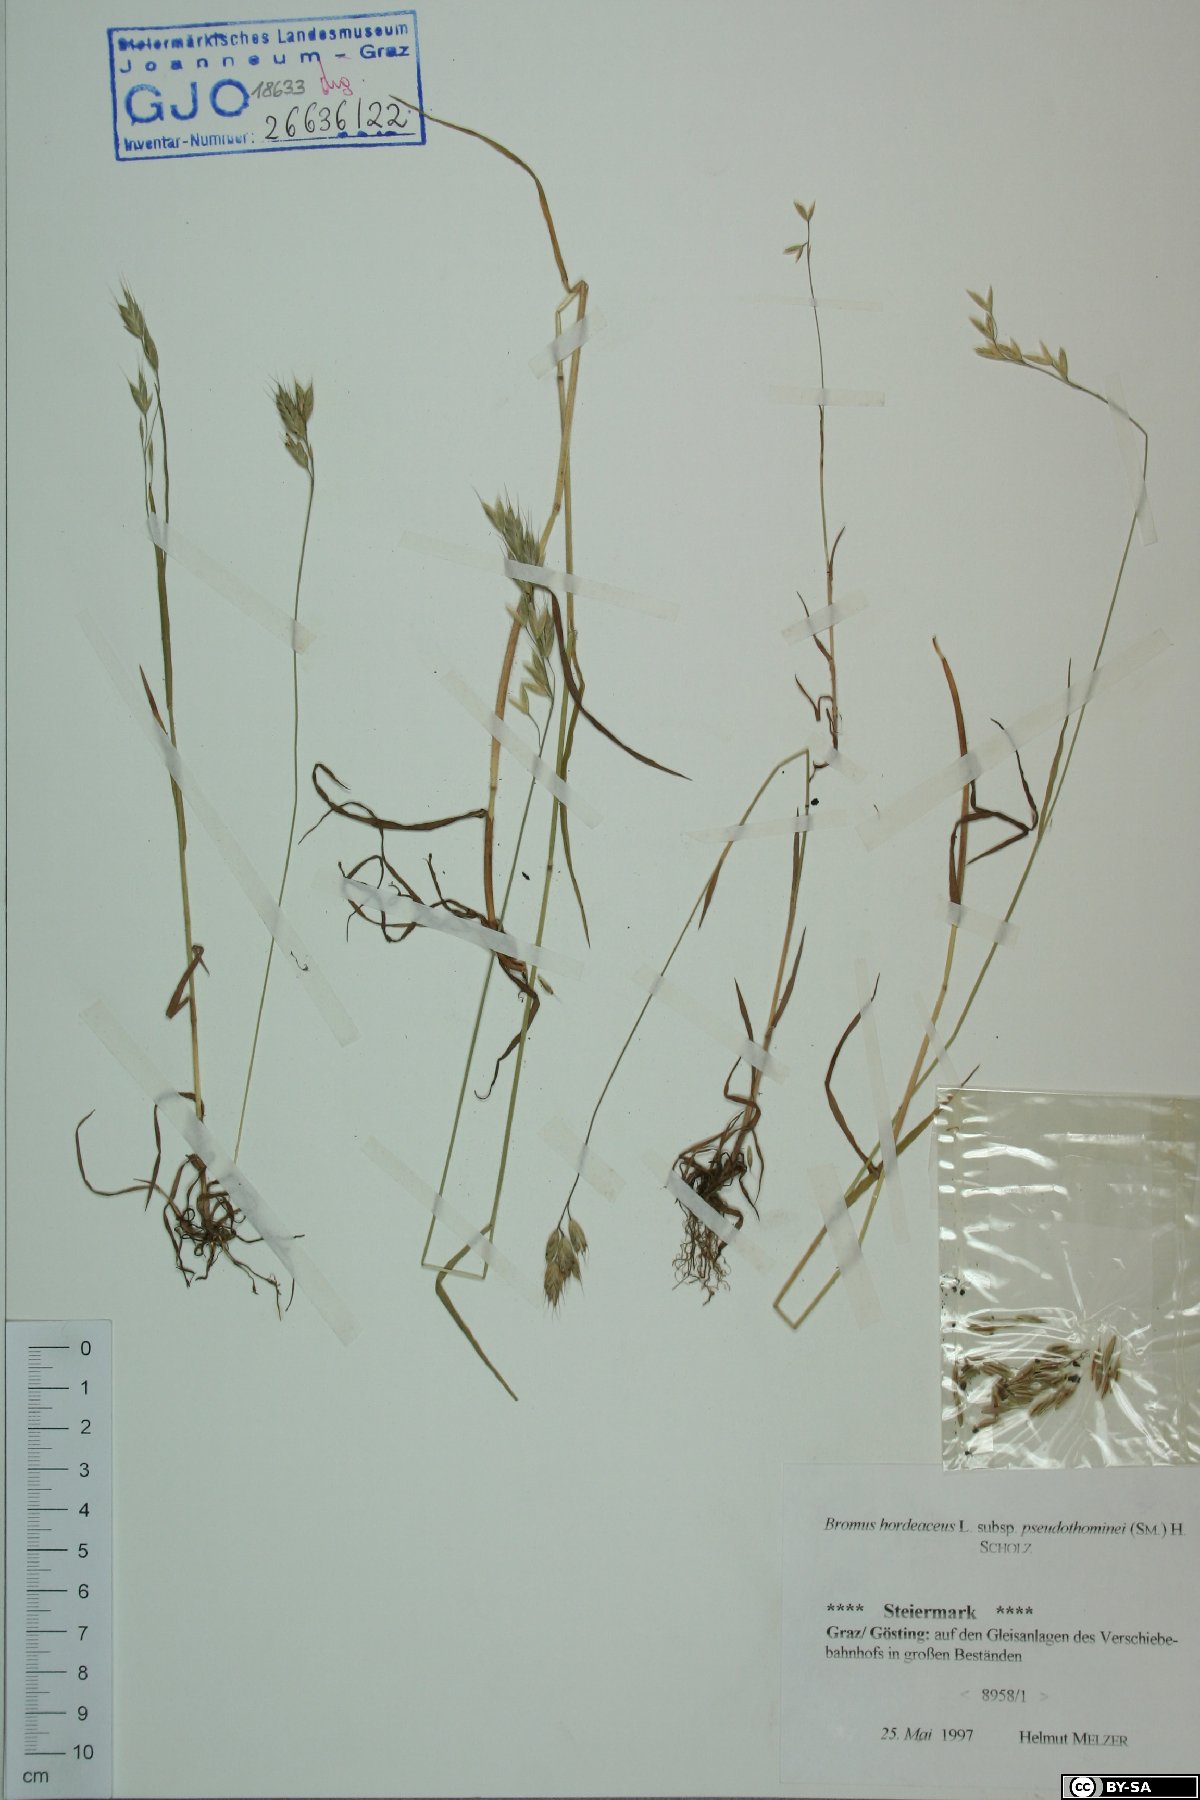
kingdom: Plantae
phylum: Tracheophyta
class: Liliopsida
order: Poales
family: Poaceae
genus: Bromus
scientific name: Bromus ferronii
